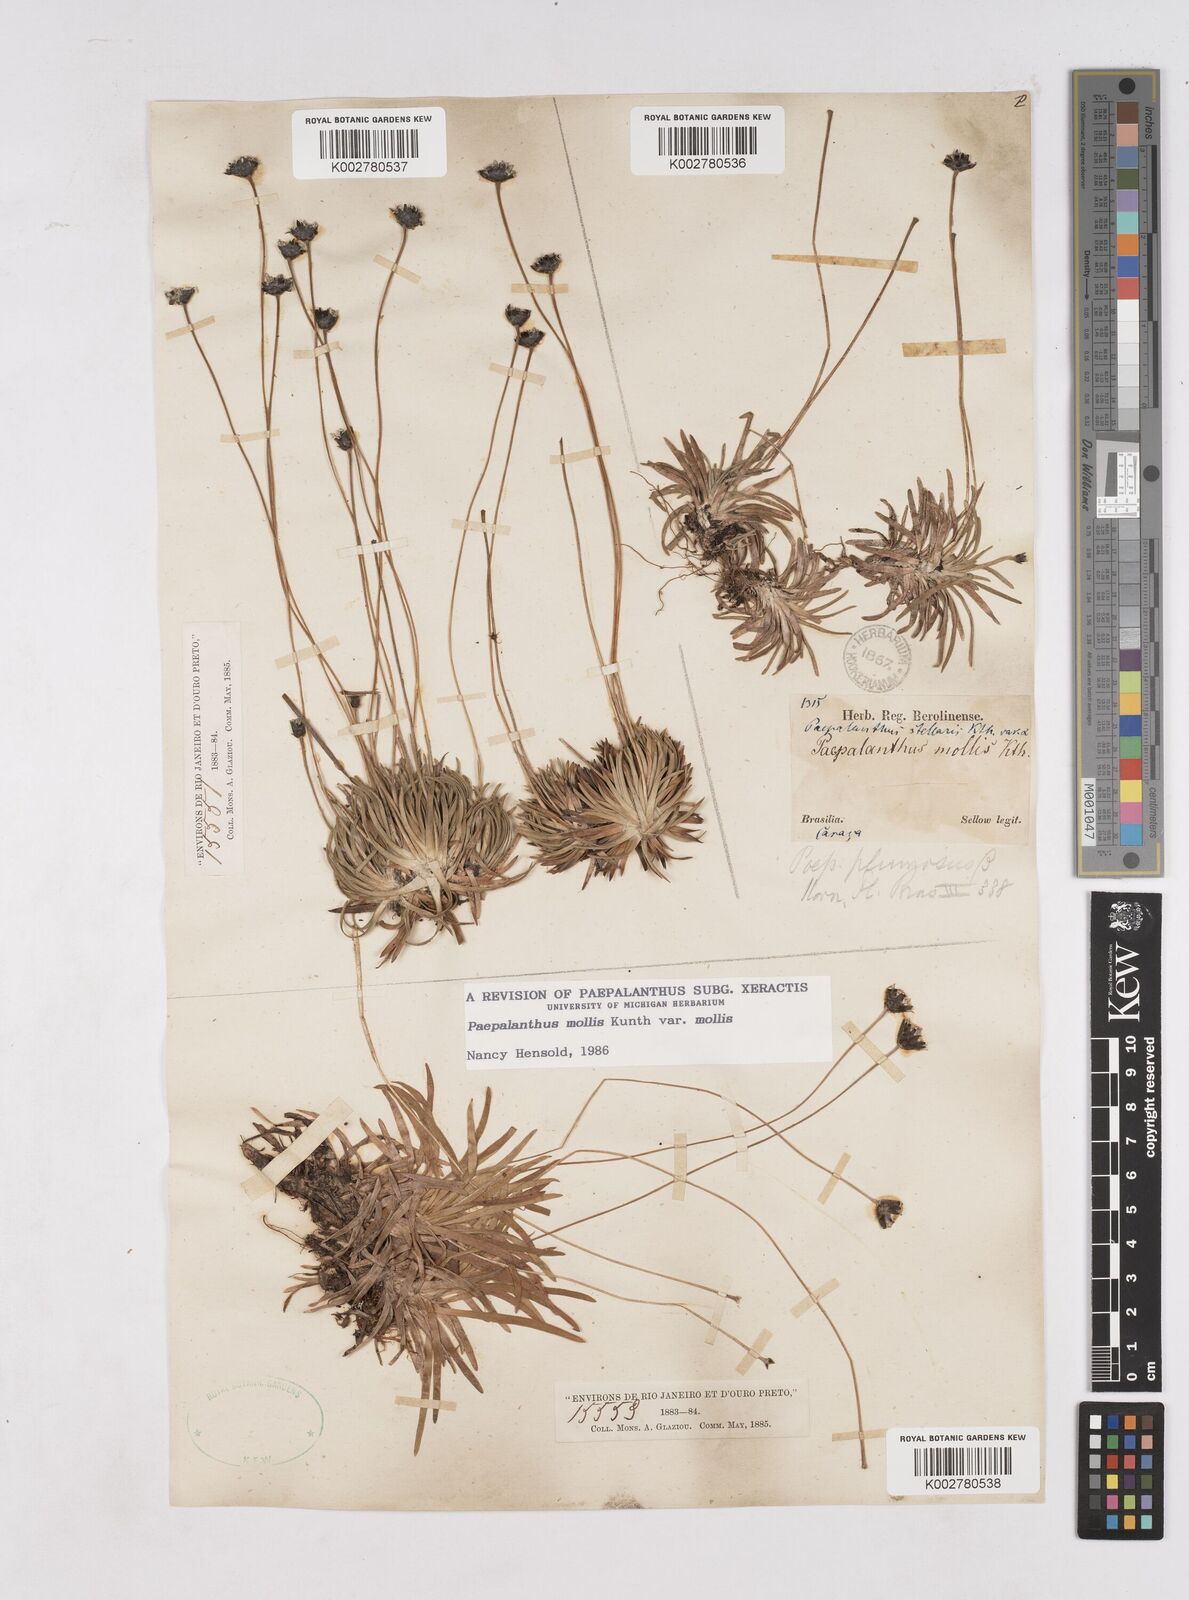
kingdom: Plantae
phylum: Tracheophyta
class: Liliopsida
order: Poales
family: Eriocaulaceae
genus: Paepalanthus
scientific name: Paepalanthus mollis
